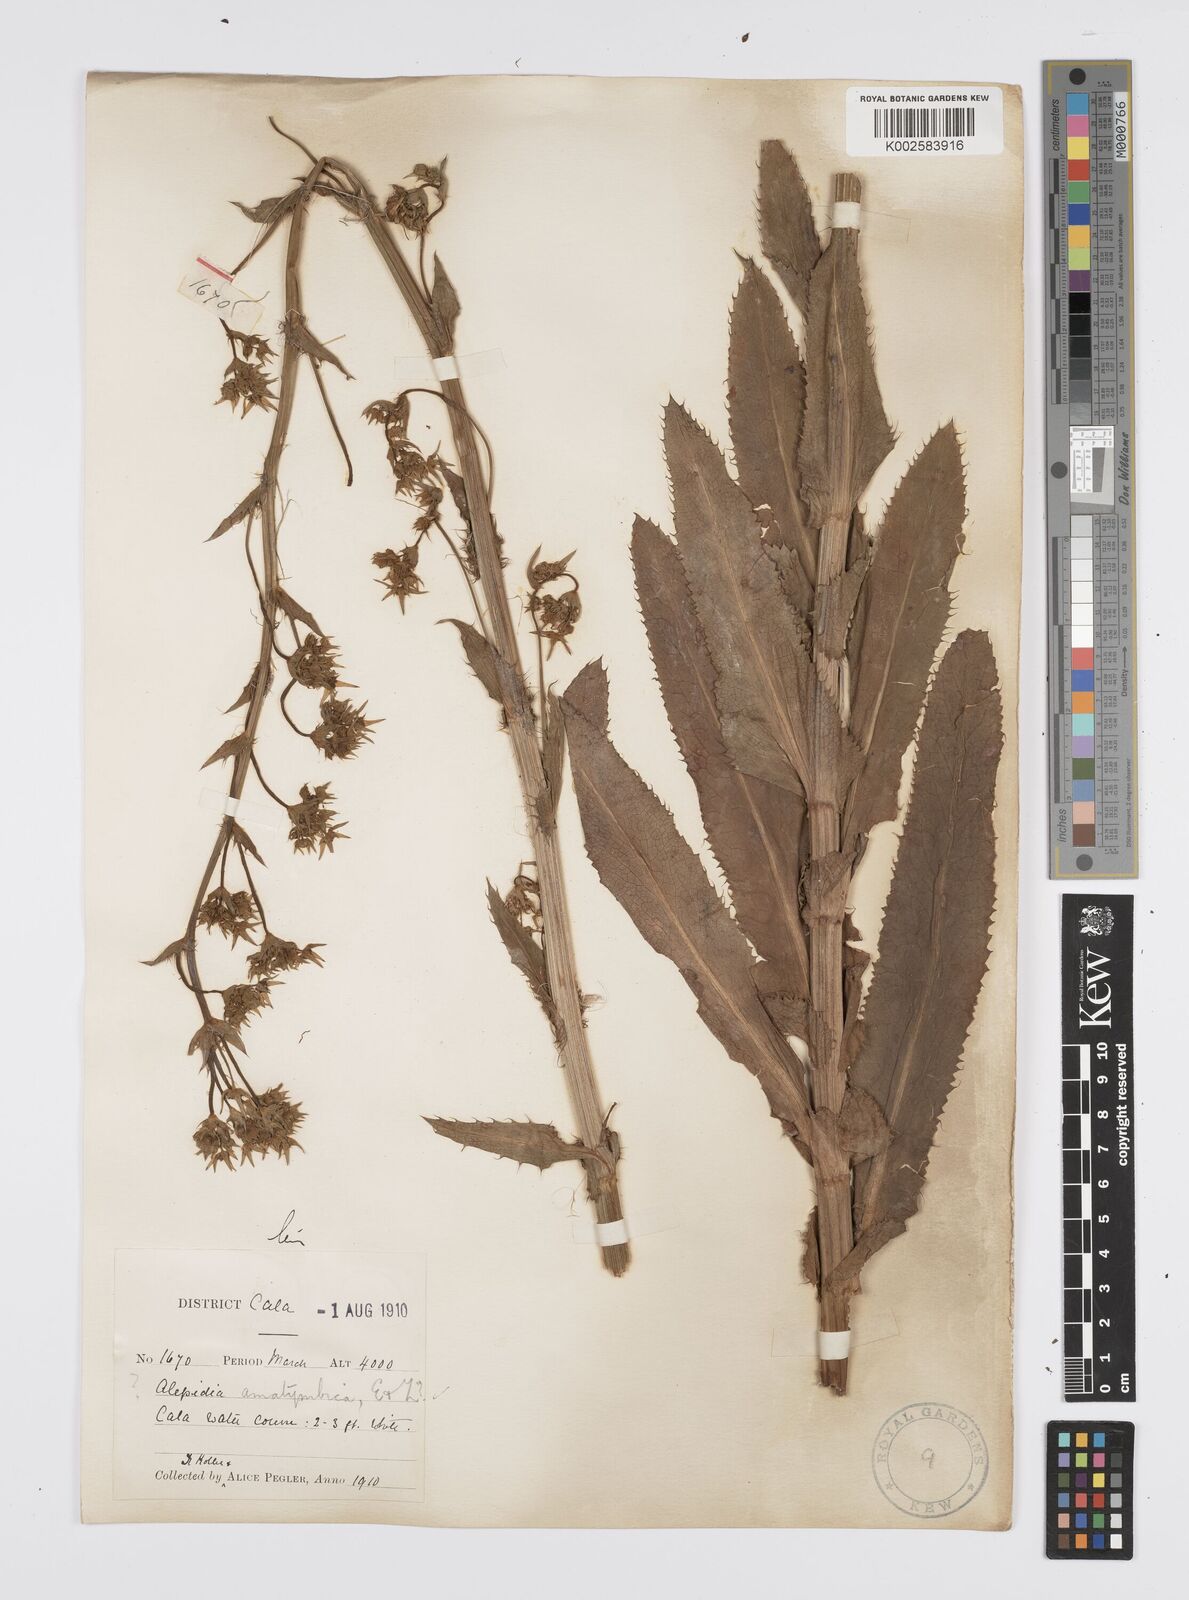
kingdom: Plantae
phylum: Tracheophyta
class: Magnoliopsida
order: Apiales
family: Apiaceae
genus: Alepidea
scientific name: Alepidea amatymbica
